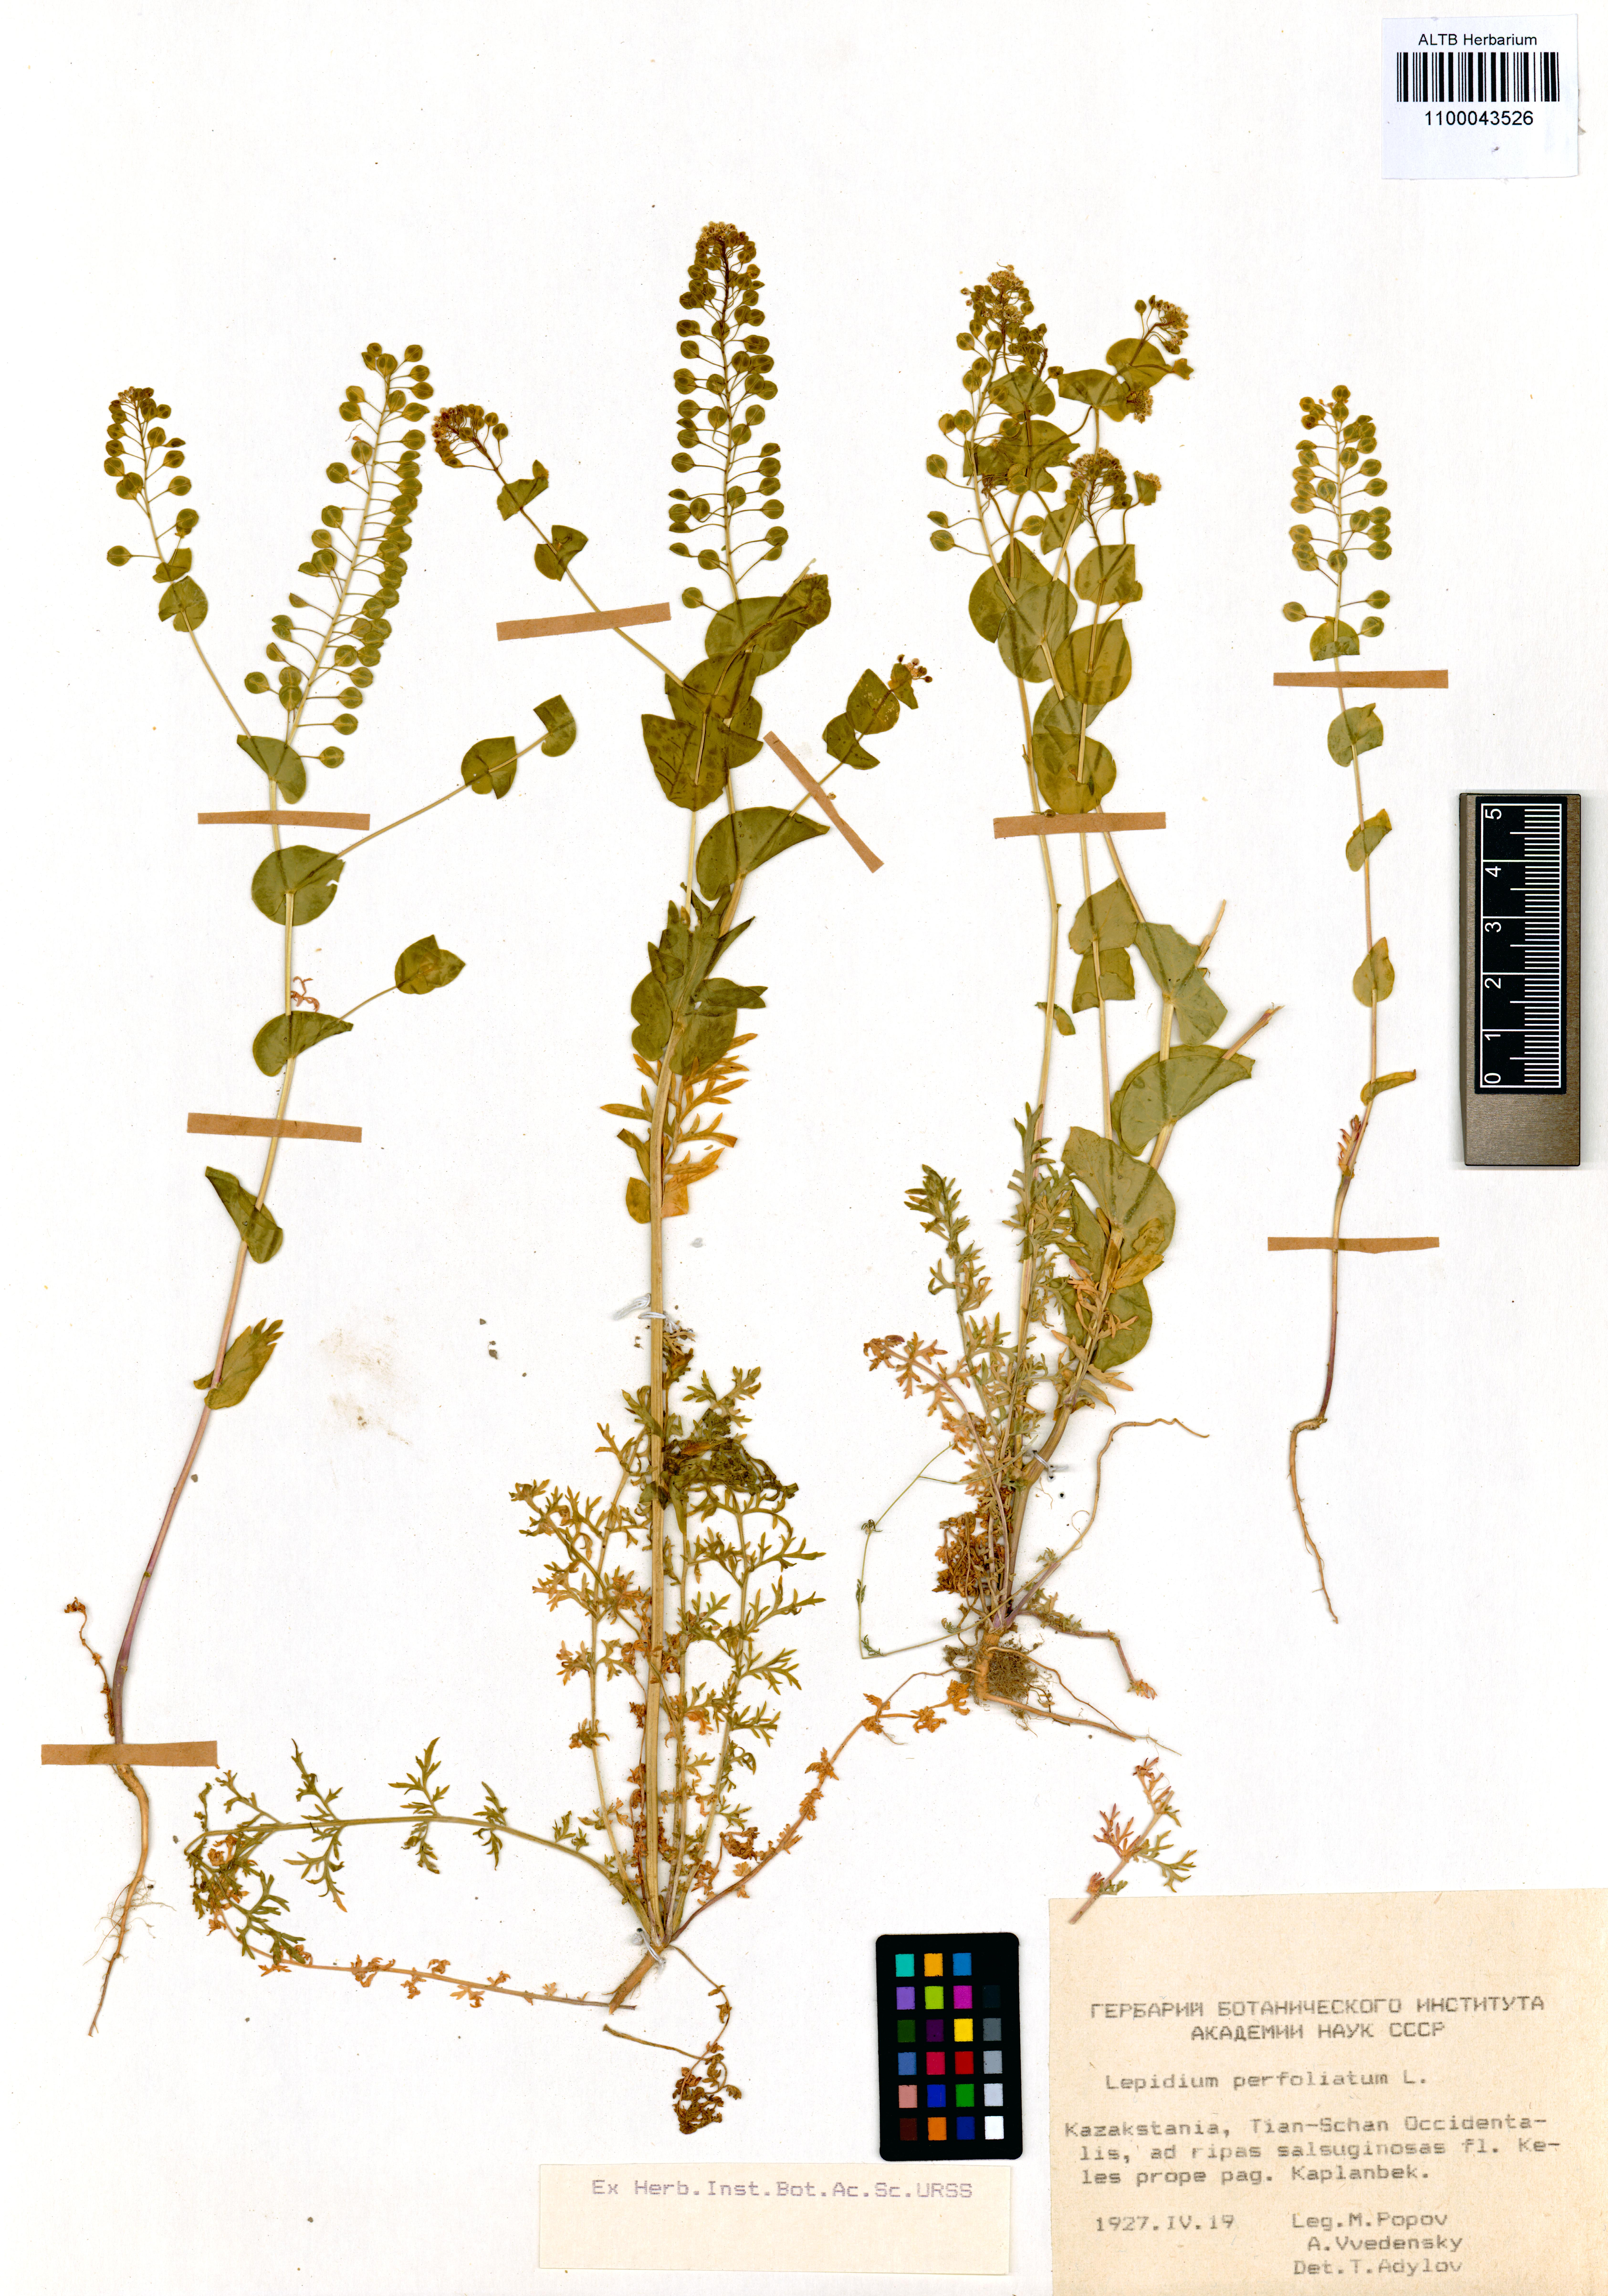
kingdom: Plantae
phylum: Tracheophyta
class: Magnoliopsida
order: Brassicales
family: Brassicaceae
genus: Lepidium
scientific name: Lepidium perfoliatum
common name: Perfoliate pepperwort
